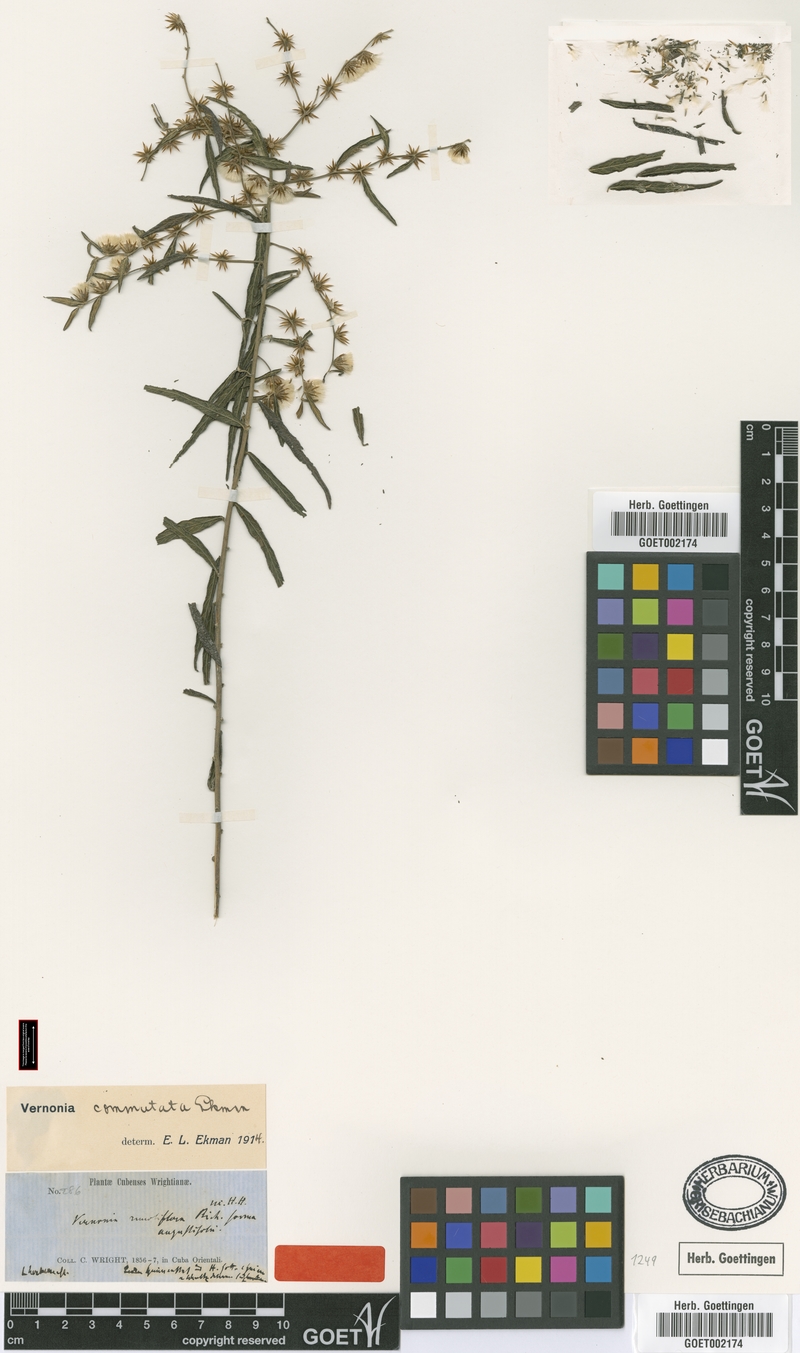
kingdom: Plantae
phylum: Tracheophyta
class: Magnoliopsida
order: Asterales
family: Asteraceae
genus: Lepidaploa
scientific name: Lepidaploa commutata
